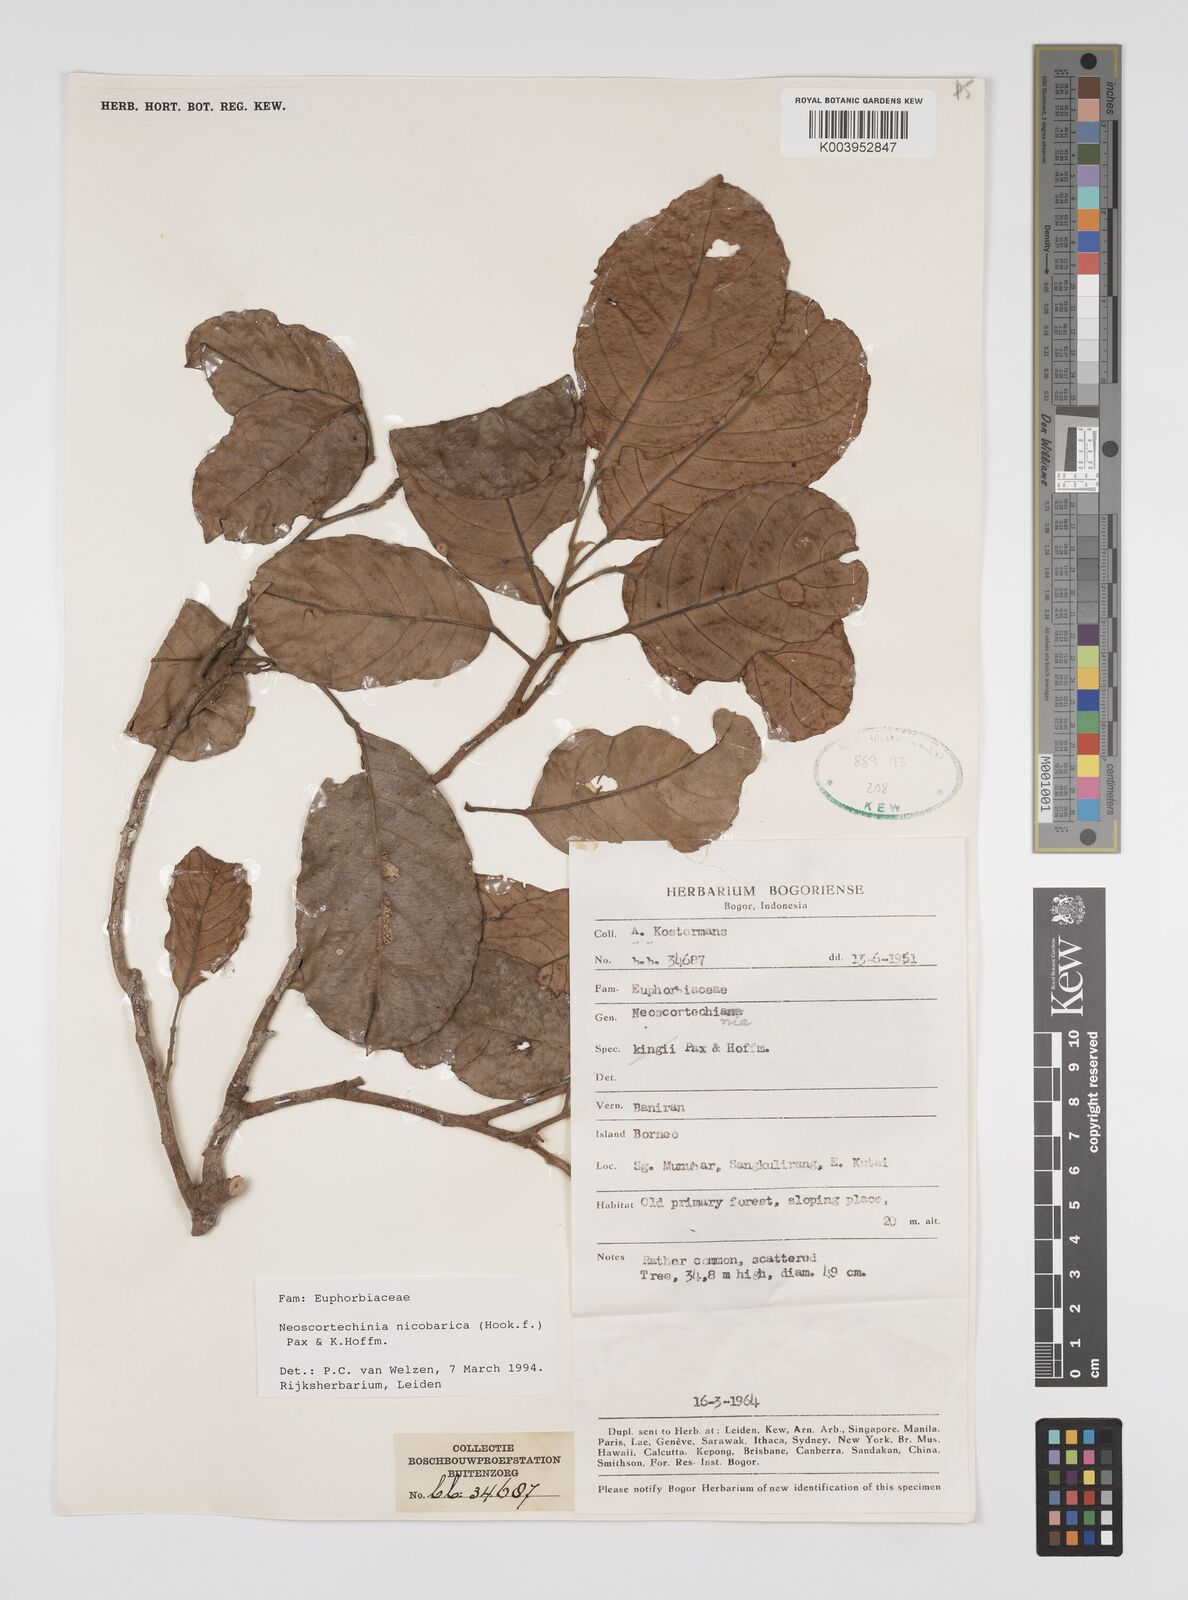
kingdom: Plantae
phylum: Tracheophyta
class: Magnoliopsida
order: Malpighiales
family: Euphorbiaceae
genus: Neoscortechinia
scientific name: Neoscortechinia nicobarica
